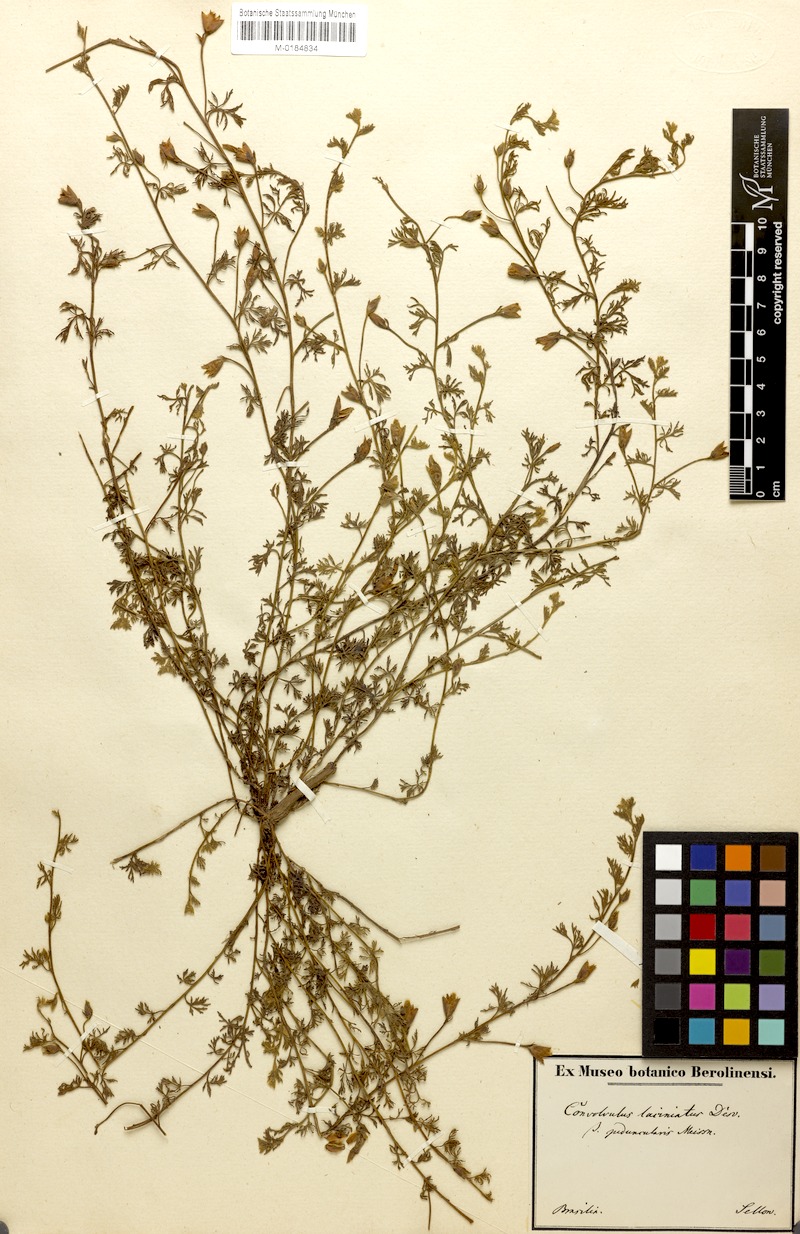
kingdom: Plantae
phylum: Tracheophyta
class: Magnoliopsida
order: Solanales
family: Convolvulaceae
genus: Convolvulus
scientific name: Convolvulus laciniatus
